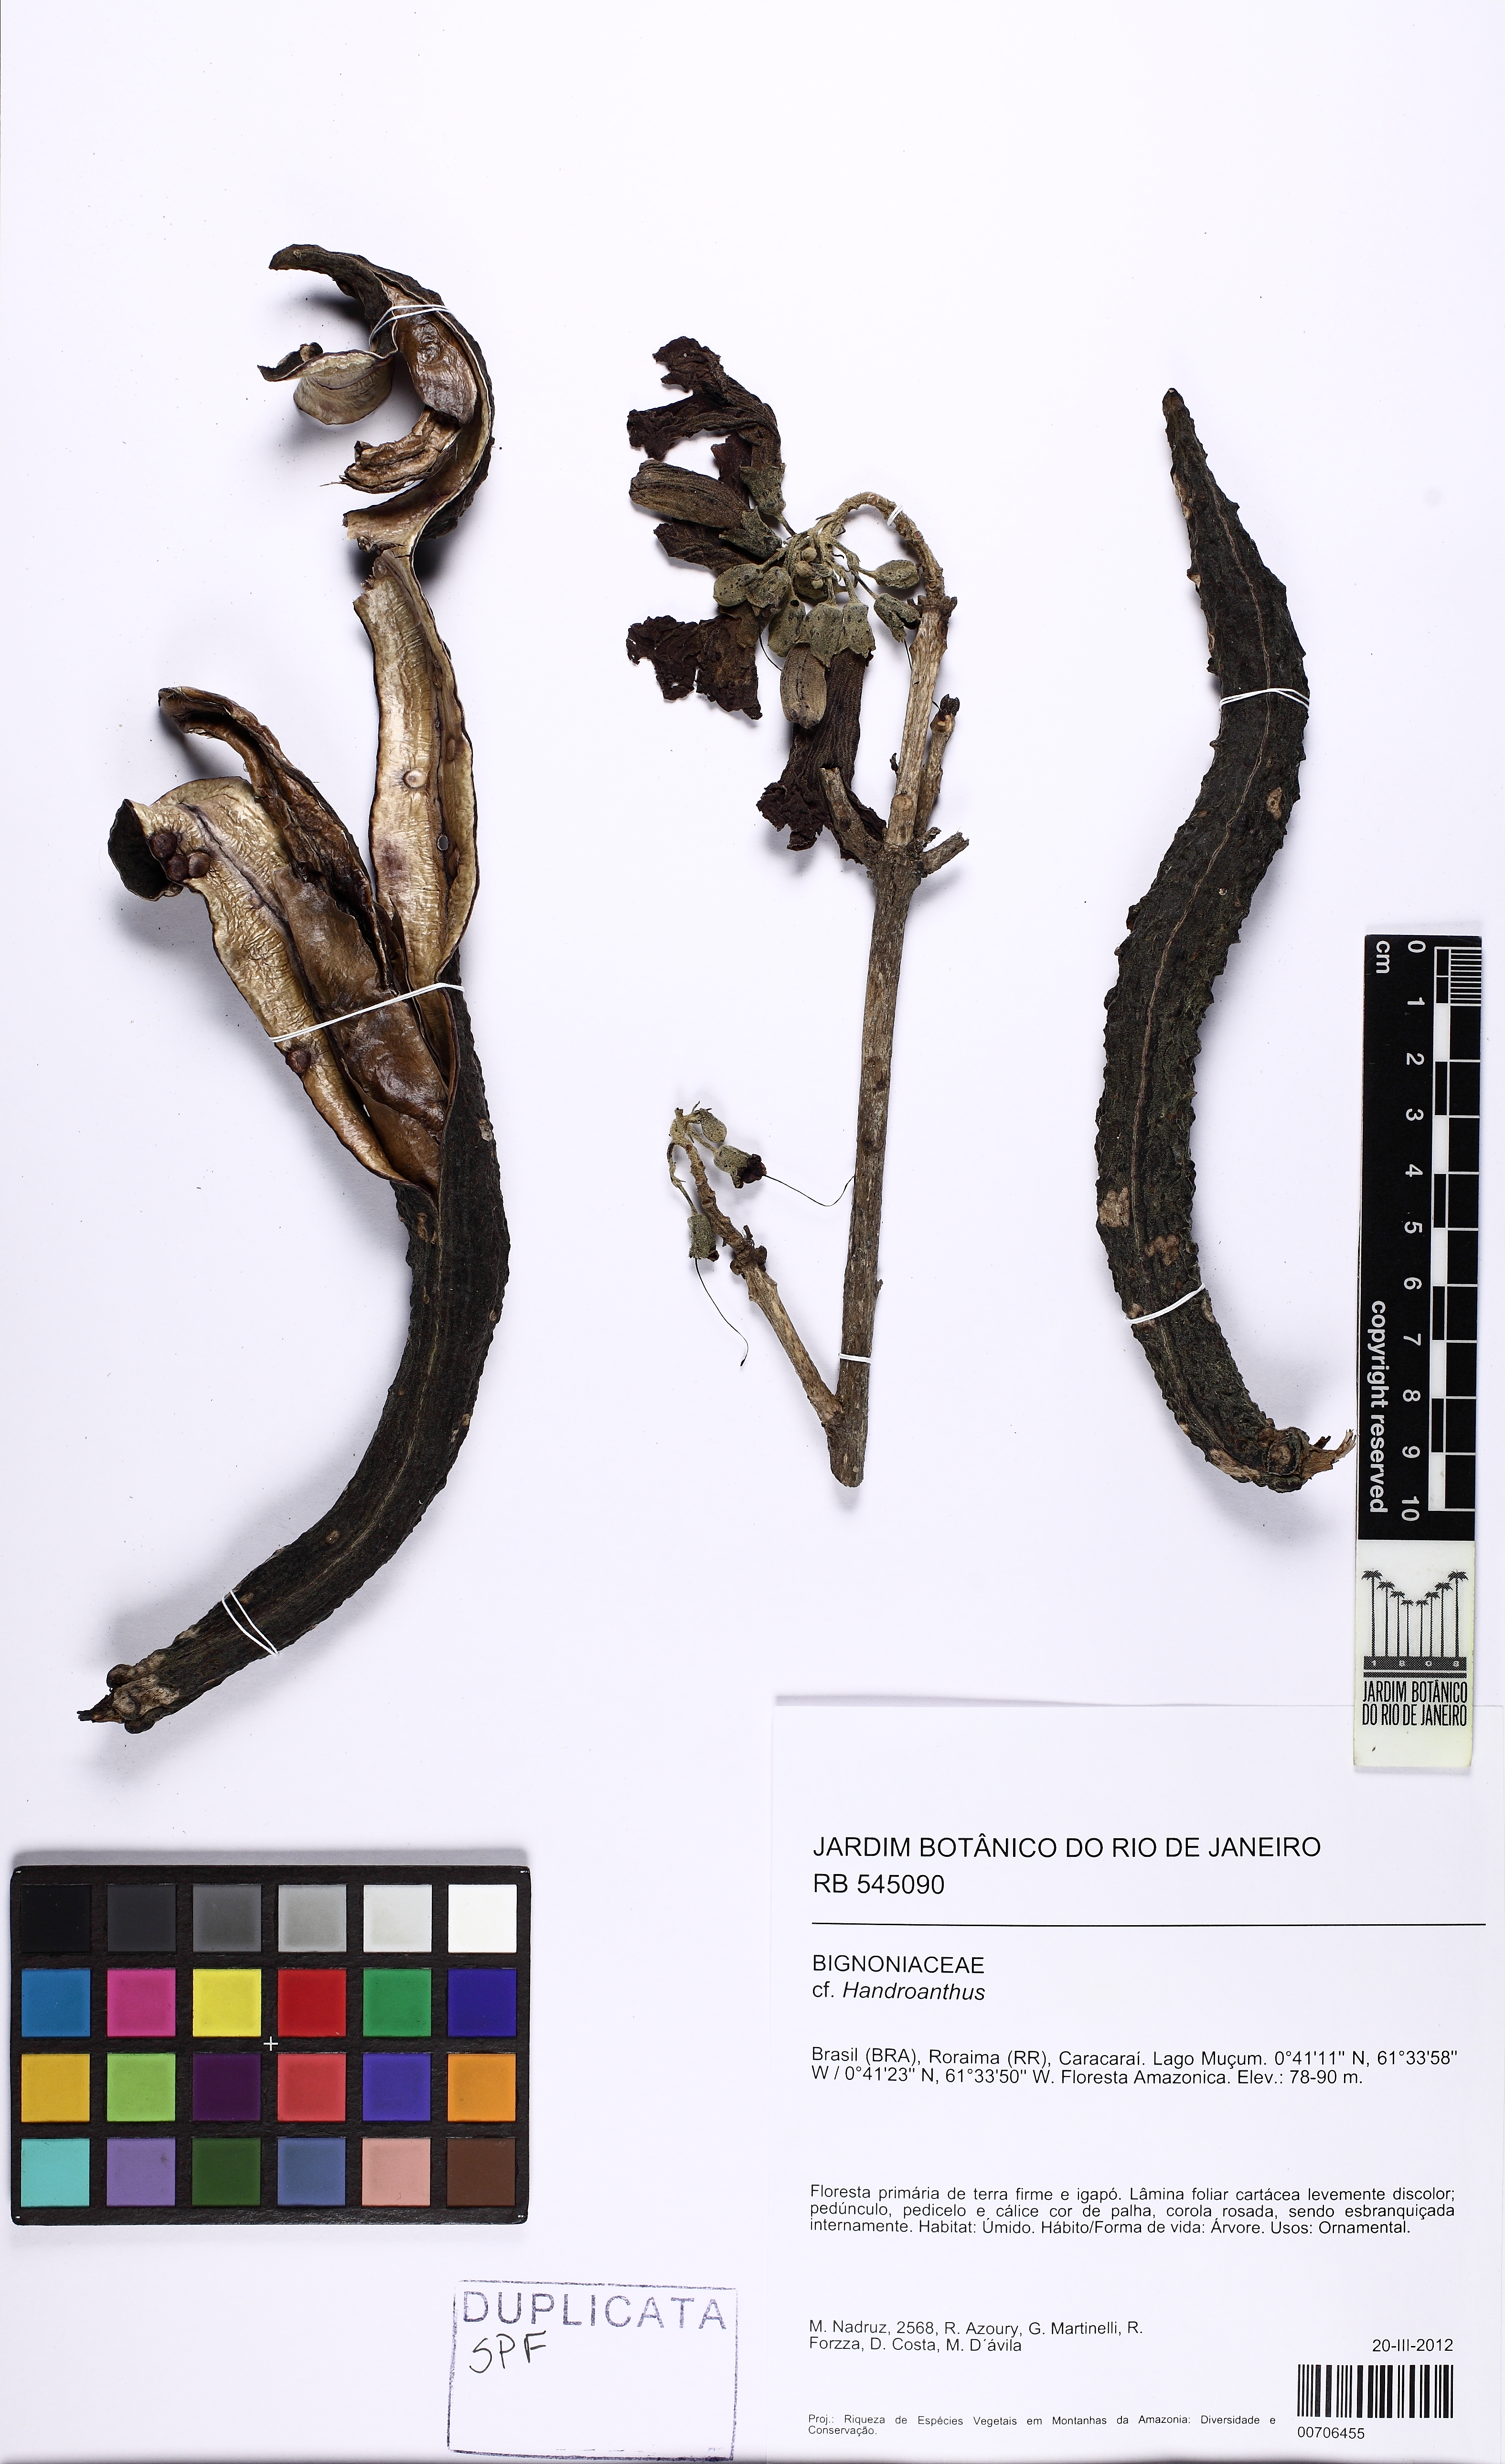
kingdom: Plantae
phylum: Tracheophyta
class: Magnoliopsida
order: Lamiales
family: Bignoniaceae
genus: Handroanthus
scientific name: Handroanthus
